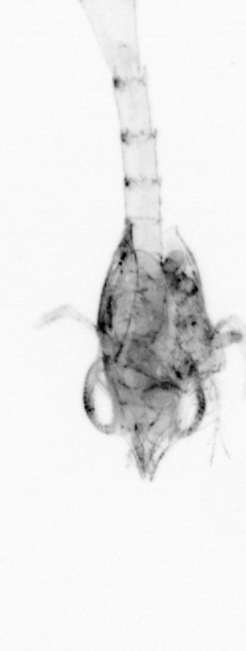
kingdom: Animalia
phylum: Arthropoda
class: Malacostraca
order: Decapoda
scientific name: Decapoda
